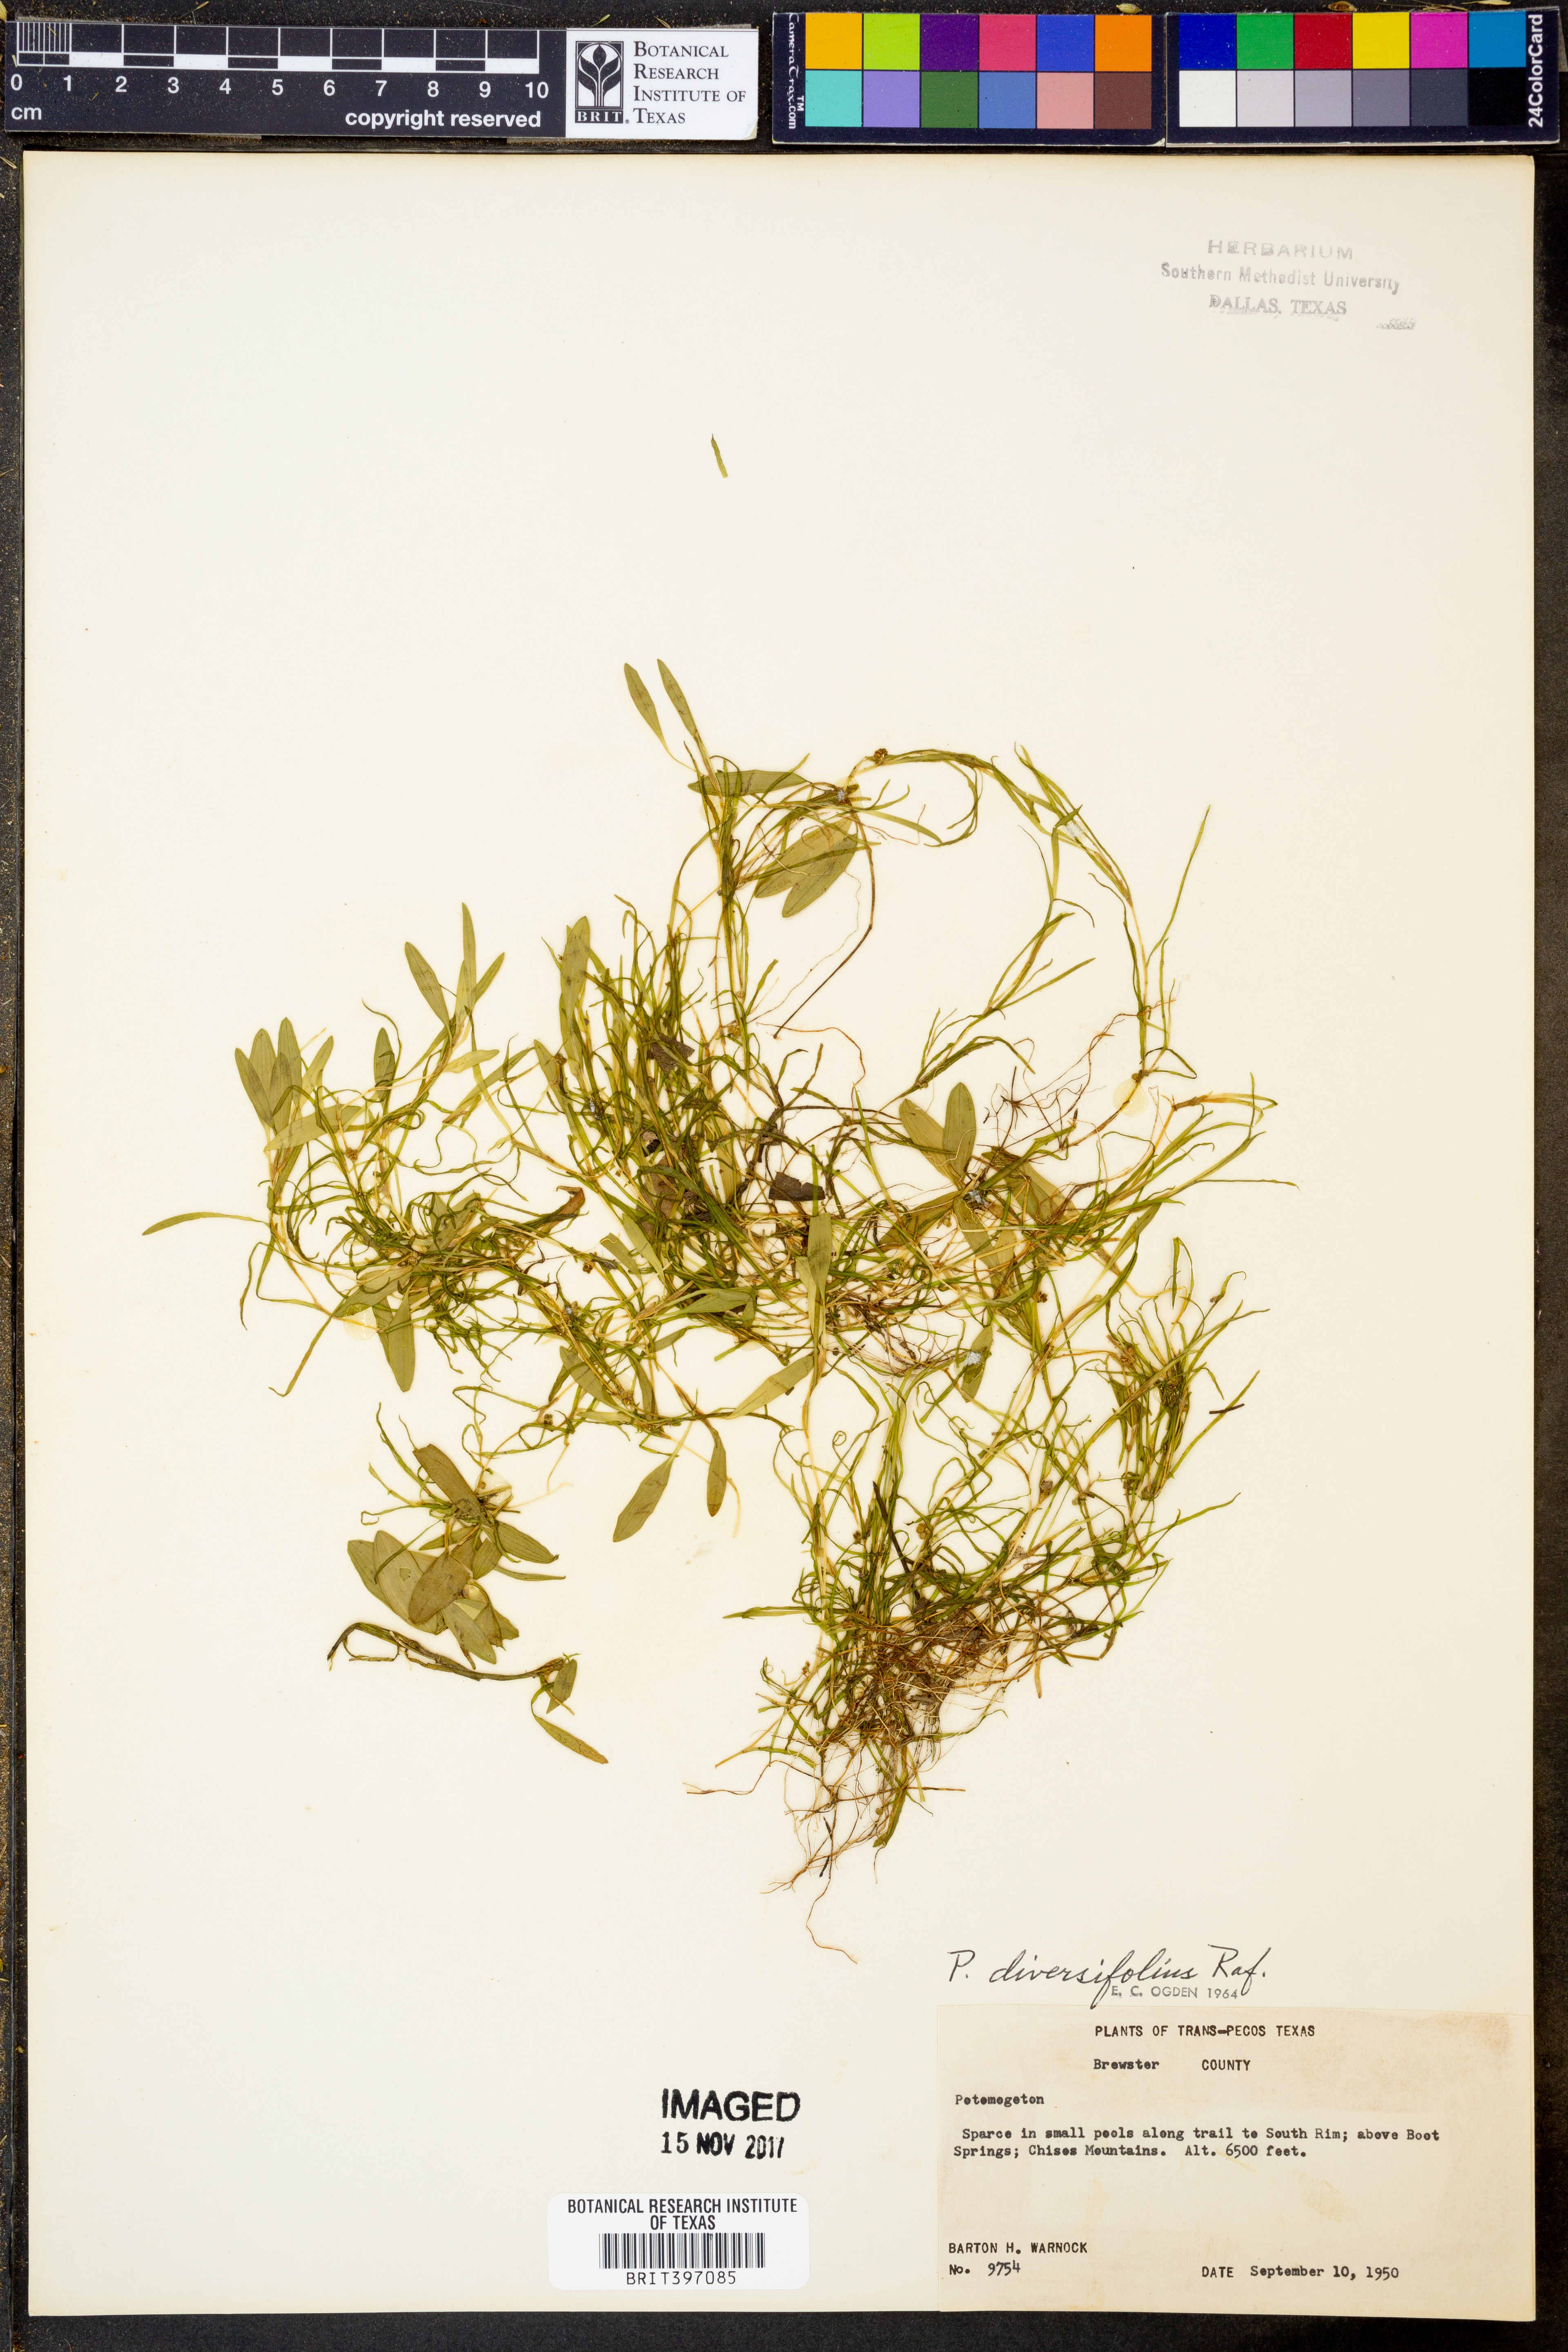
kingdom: Plantae
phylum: Tracheophyta
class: Liliopsida
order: Alismatales
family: Potamogetonaceae
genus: Potamogeton
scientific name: Potamogeton diversifolius
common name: Water-thread pondweed
